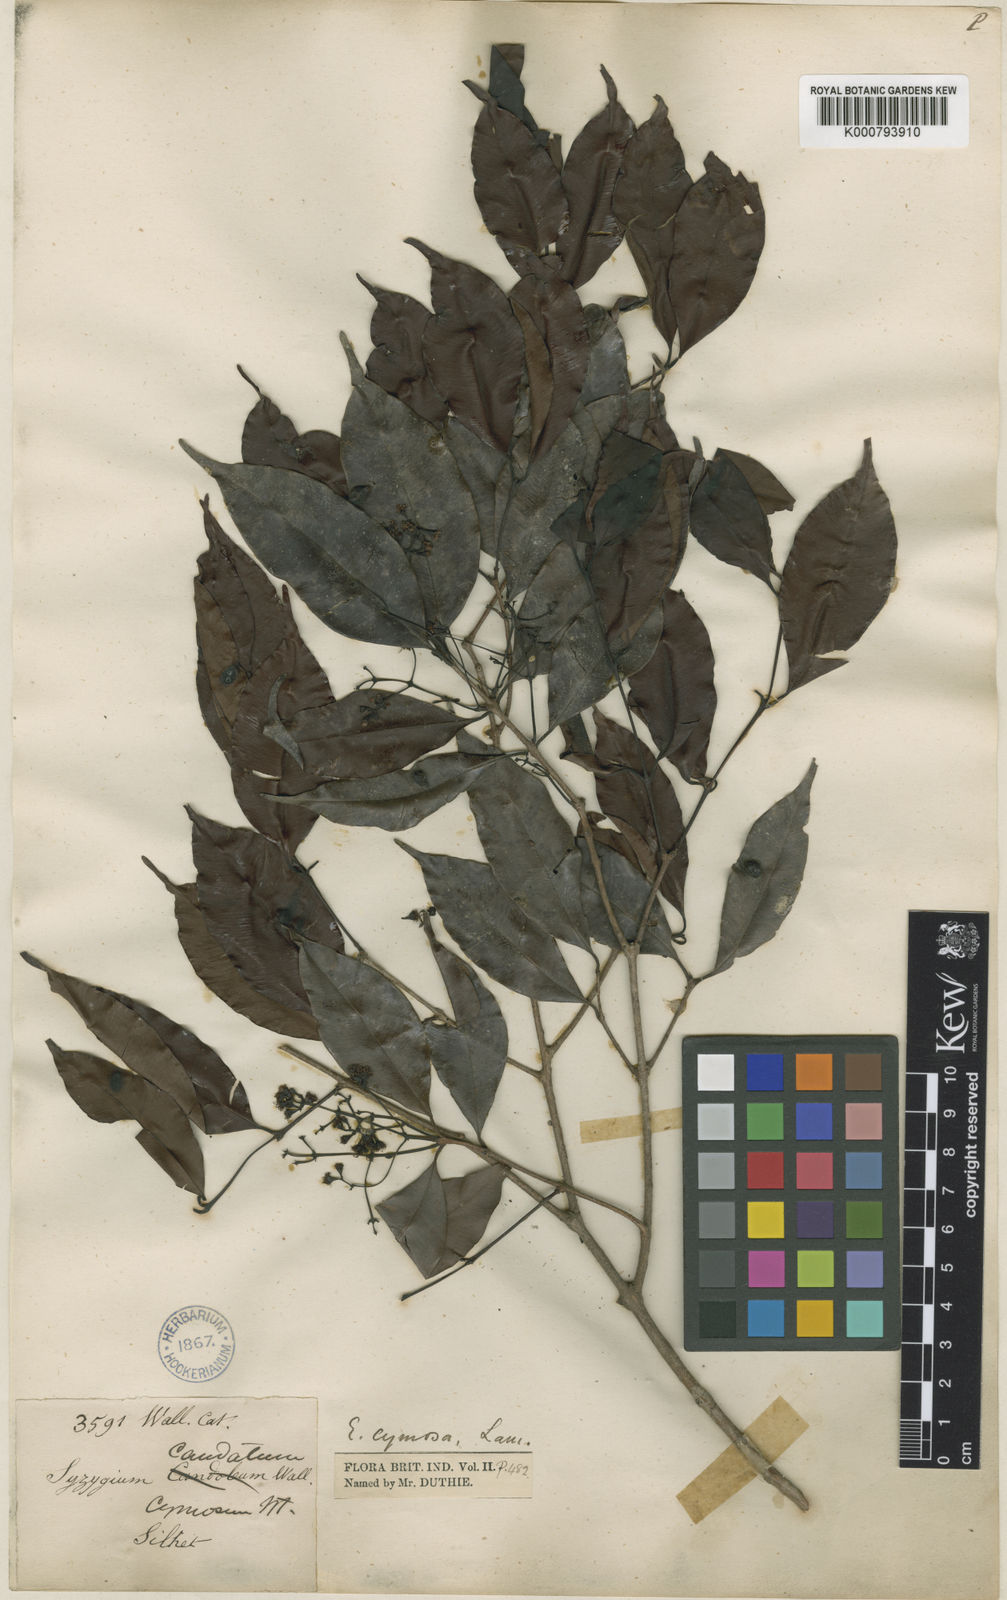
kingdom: Plantae
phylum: Tracheophyta
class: Magnoliopsida
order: Myrtales
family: Myrtaceae
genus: Syzygium
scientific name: Syzygium polyanthum
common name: Indonesian bayleaf
